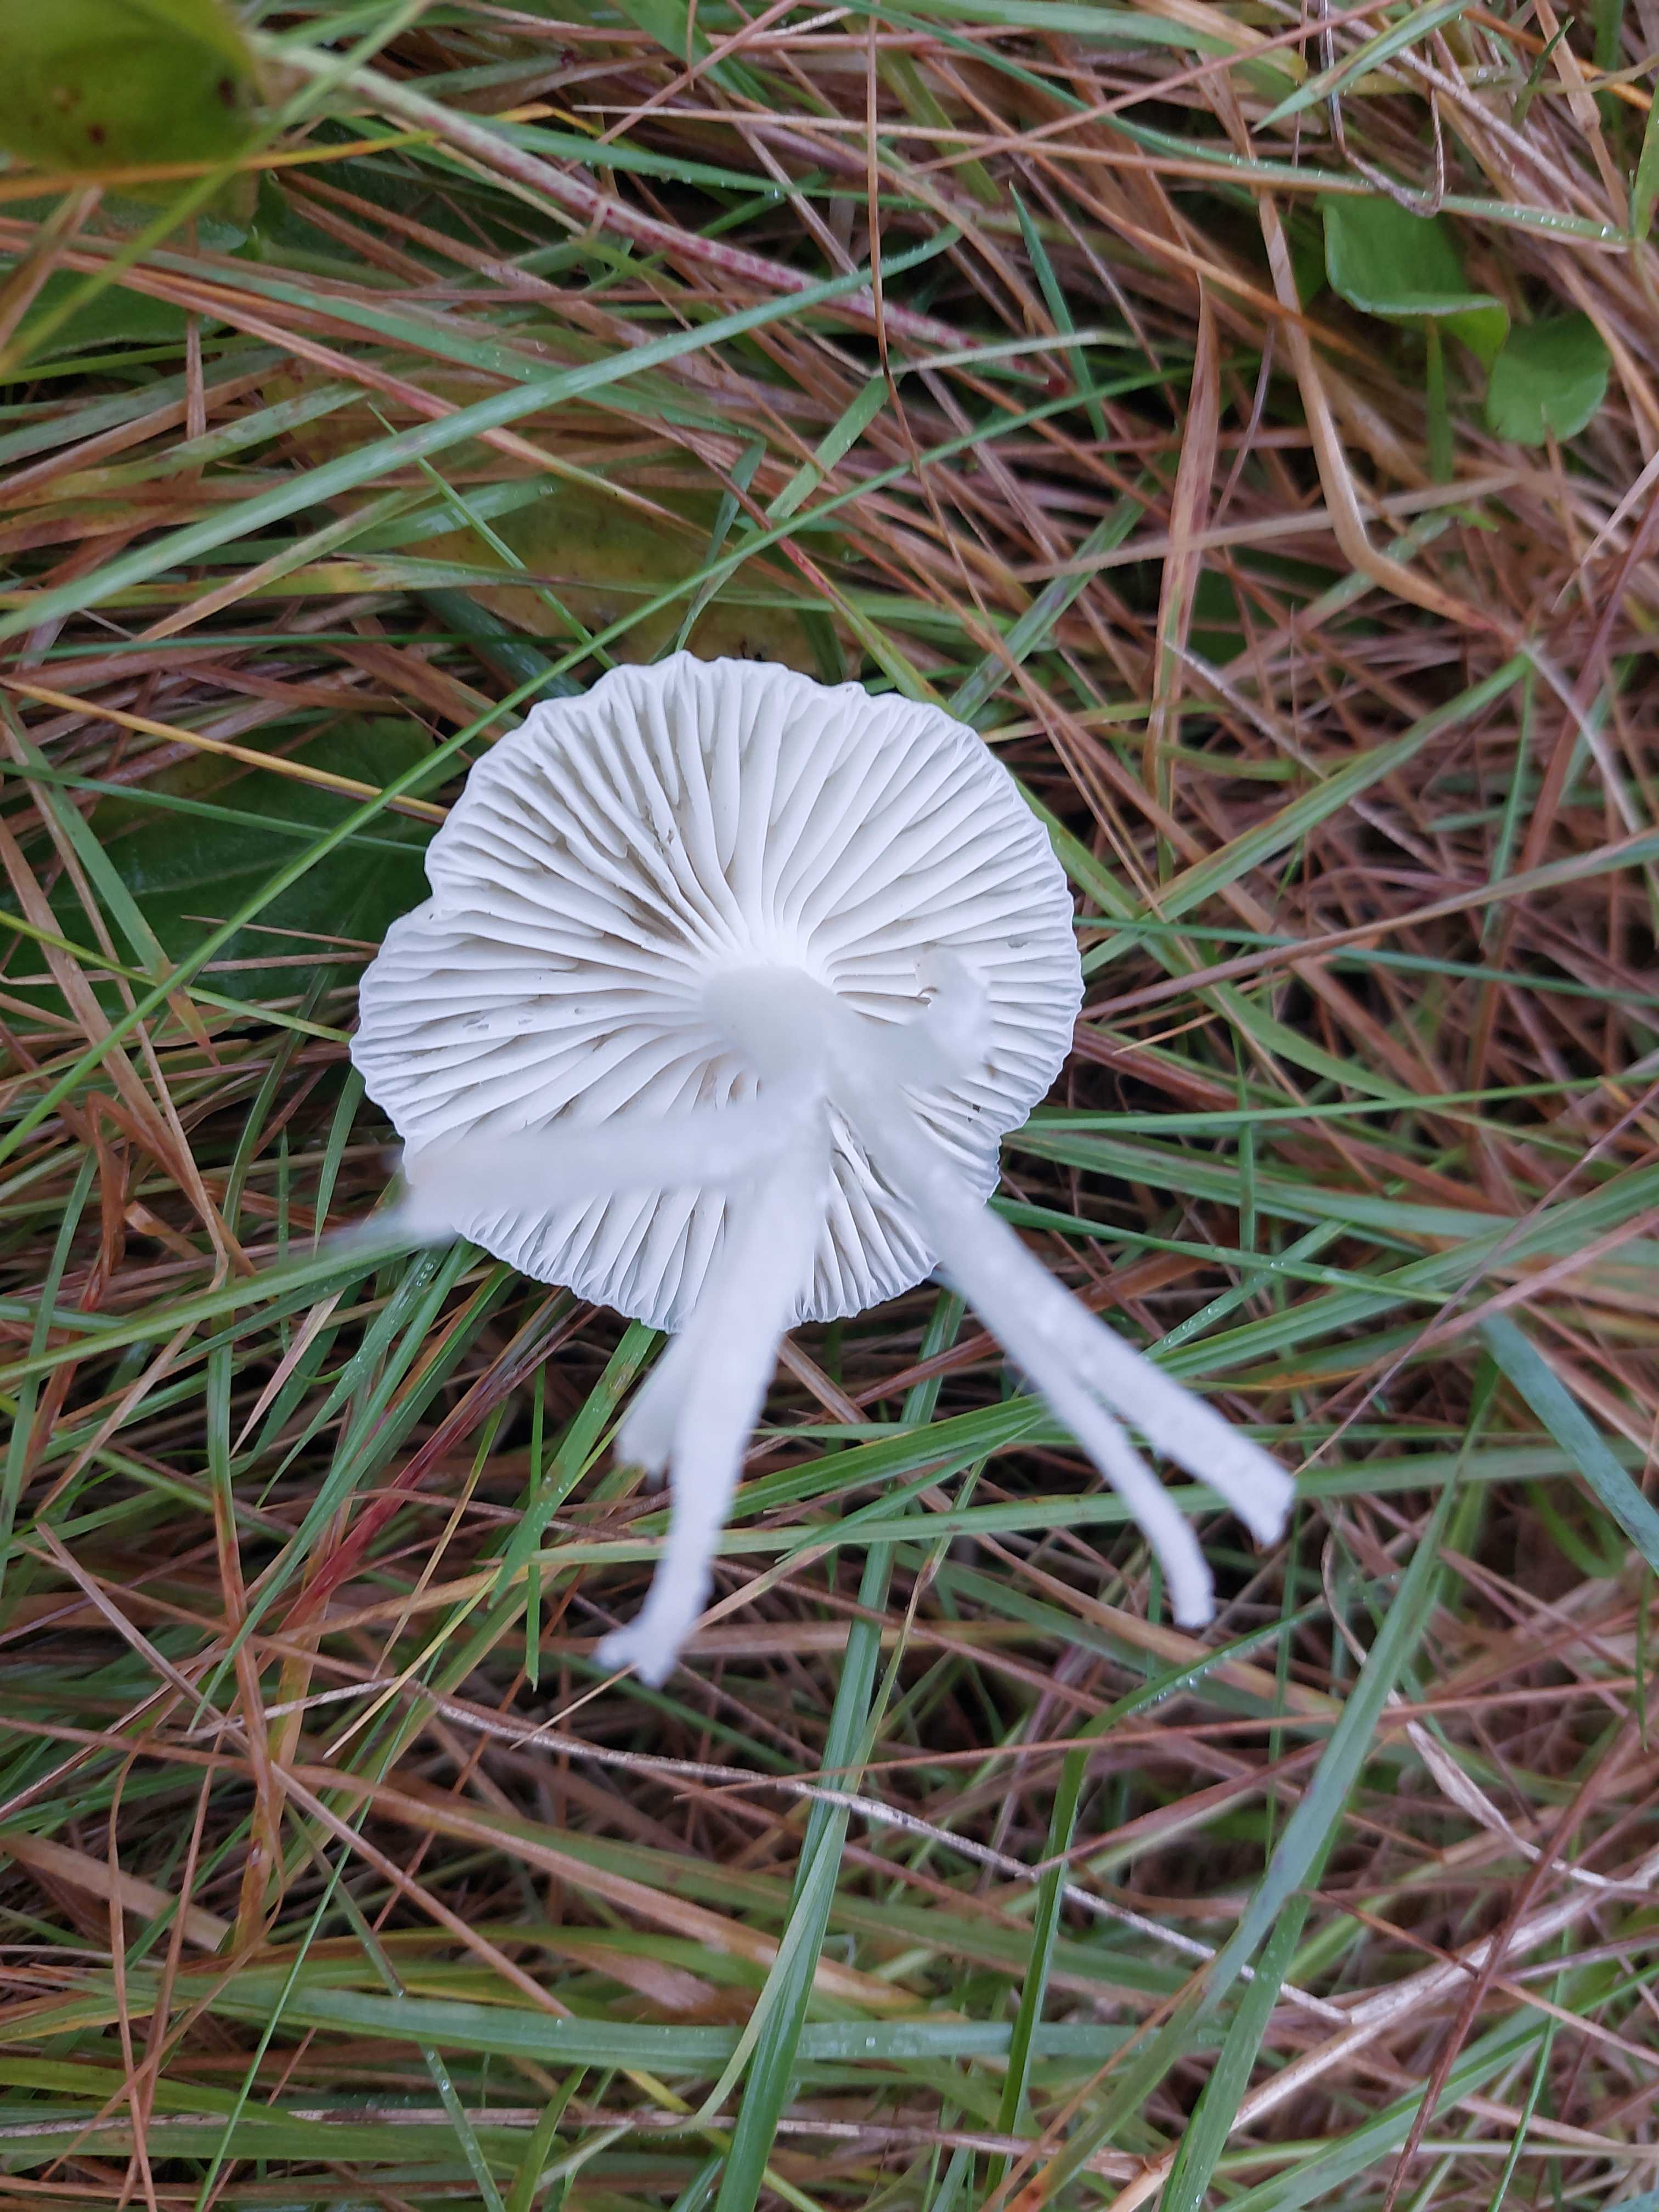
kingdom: Fungi
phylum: Basidiomycota
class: Agaricomycetes
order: Agaricales
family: Hygrophoraceae
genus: Cuphophyllus
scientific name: Cuphophyllus virgineus
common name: snehvid vokshat
